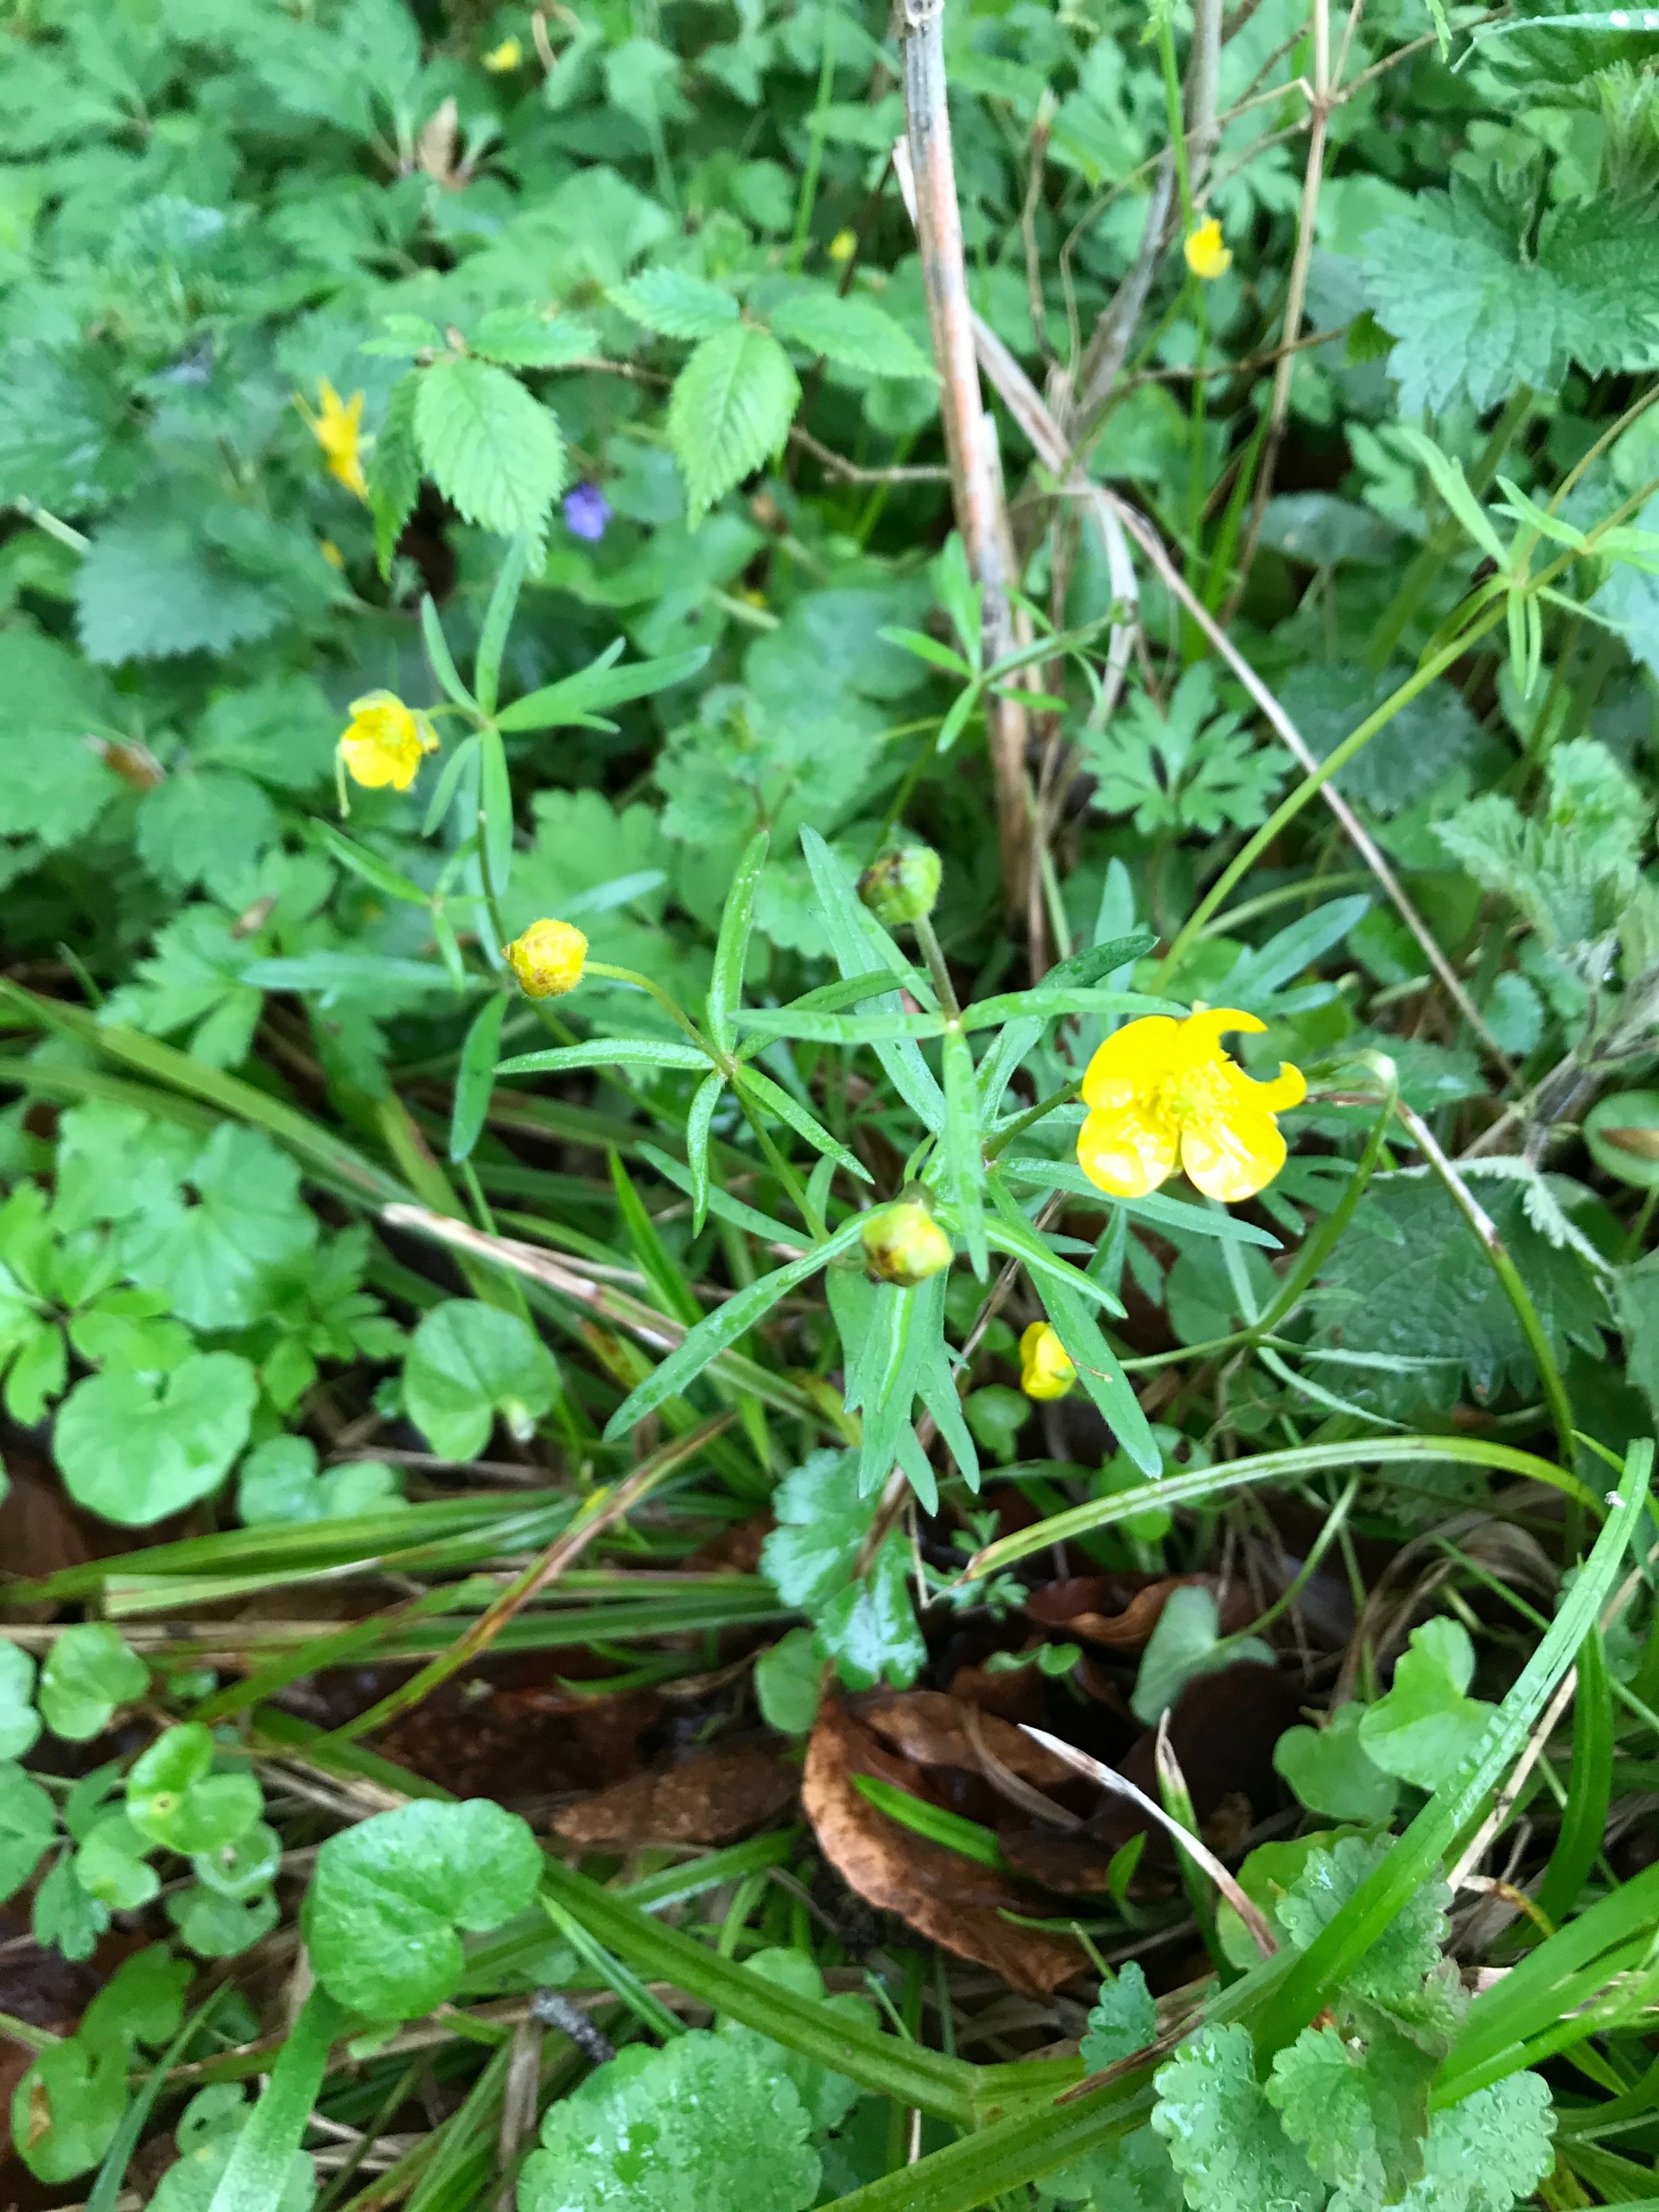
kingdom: Plantae
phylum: Tracheophyta
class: Magnoliopsida
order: Ranunculales
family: Ranunculaceae
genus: Ranunculus
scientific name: Ranunculus auricomus
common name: Nyrebladet ranunkel
